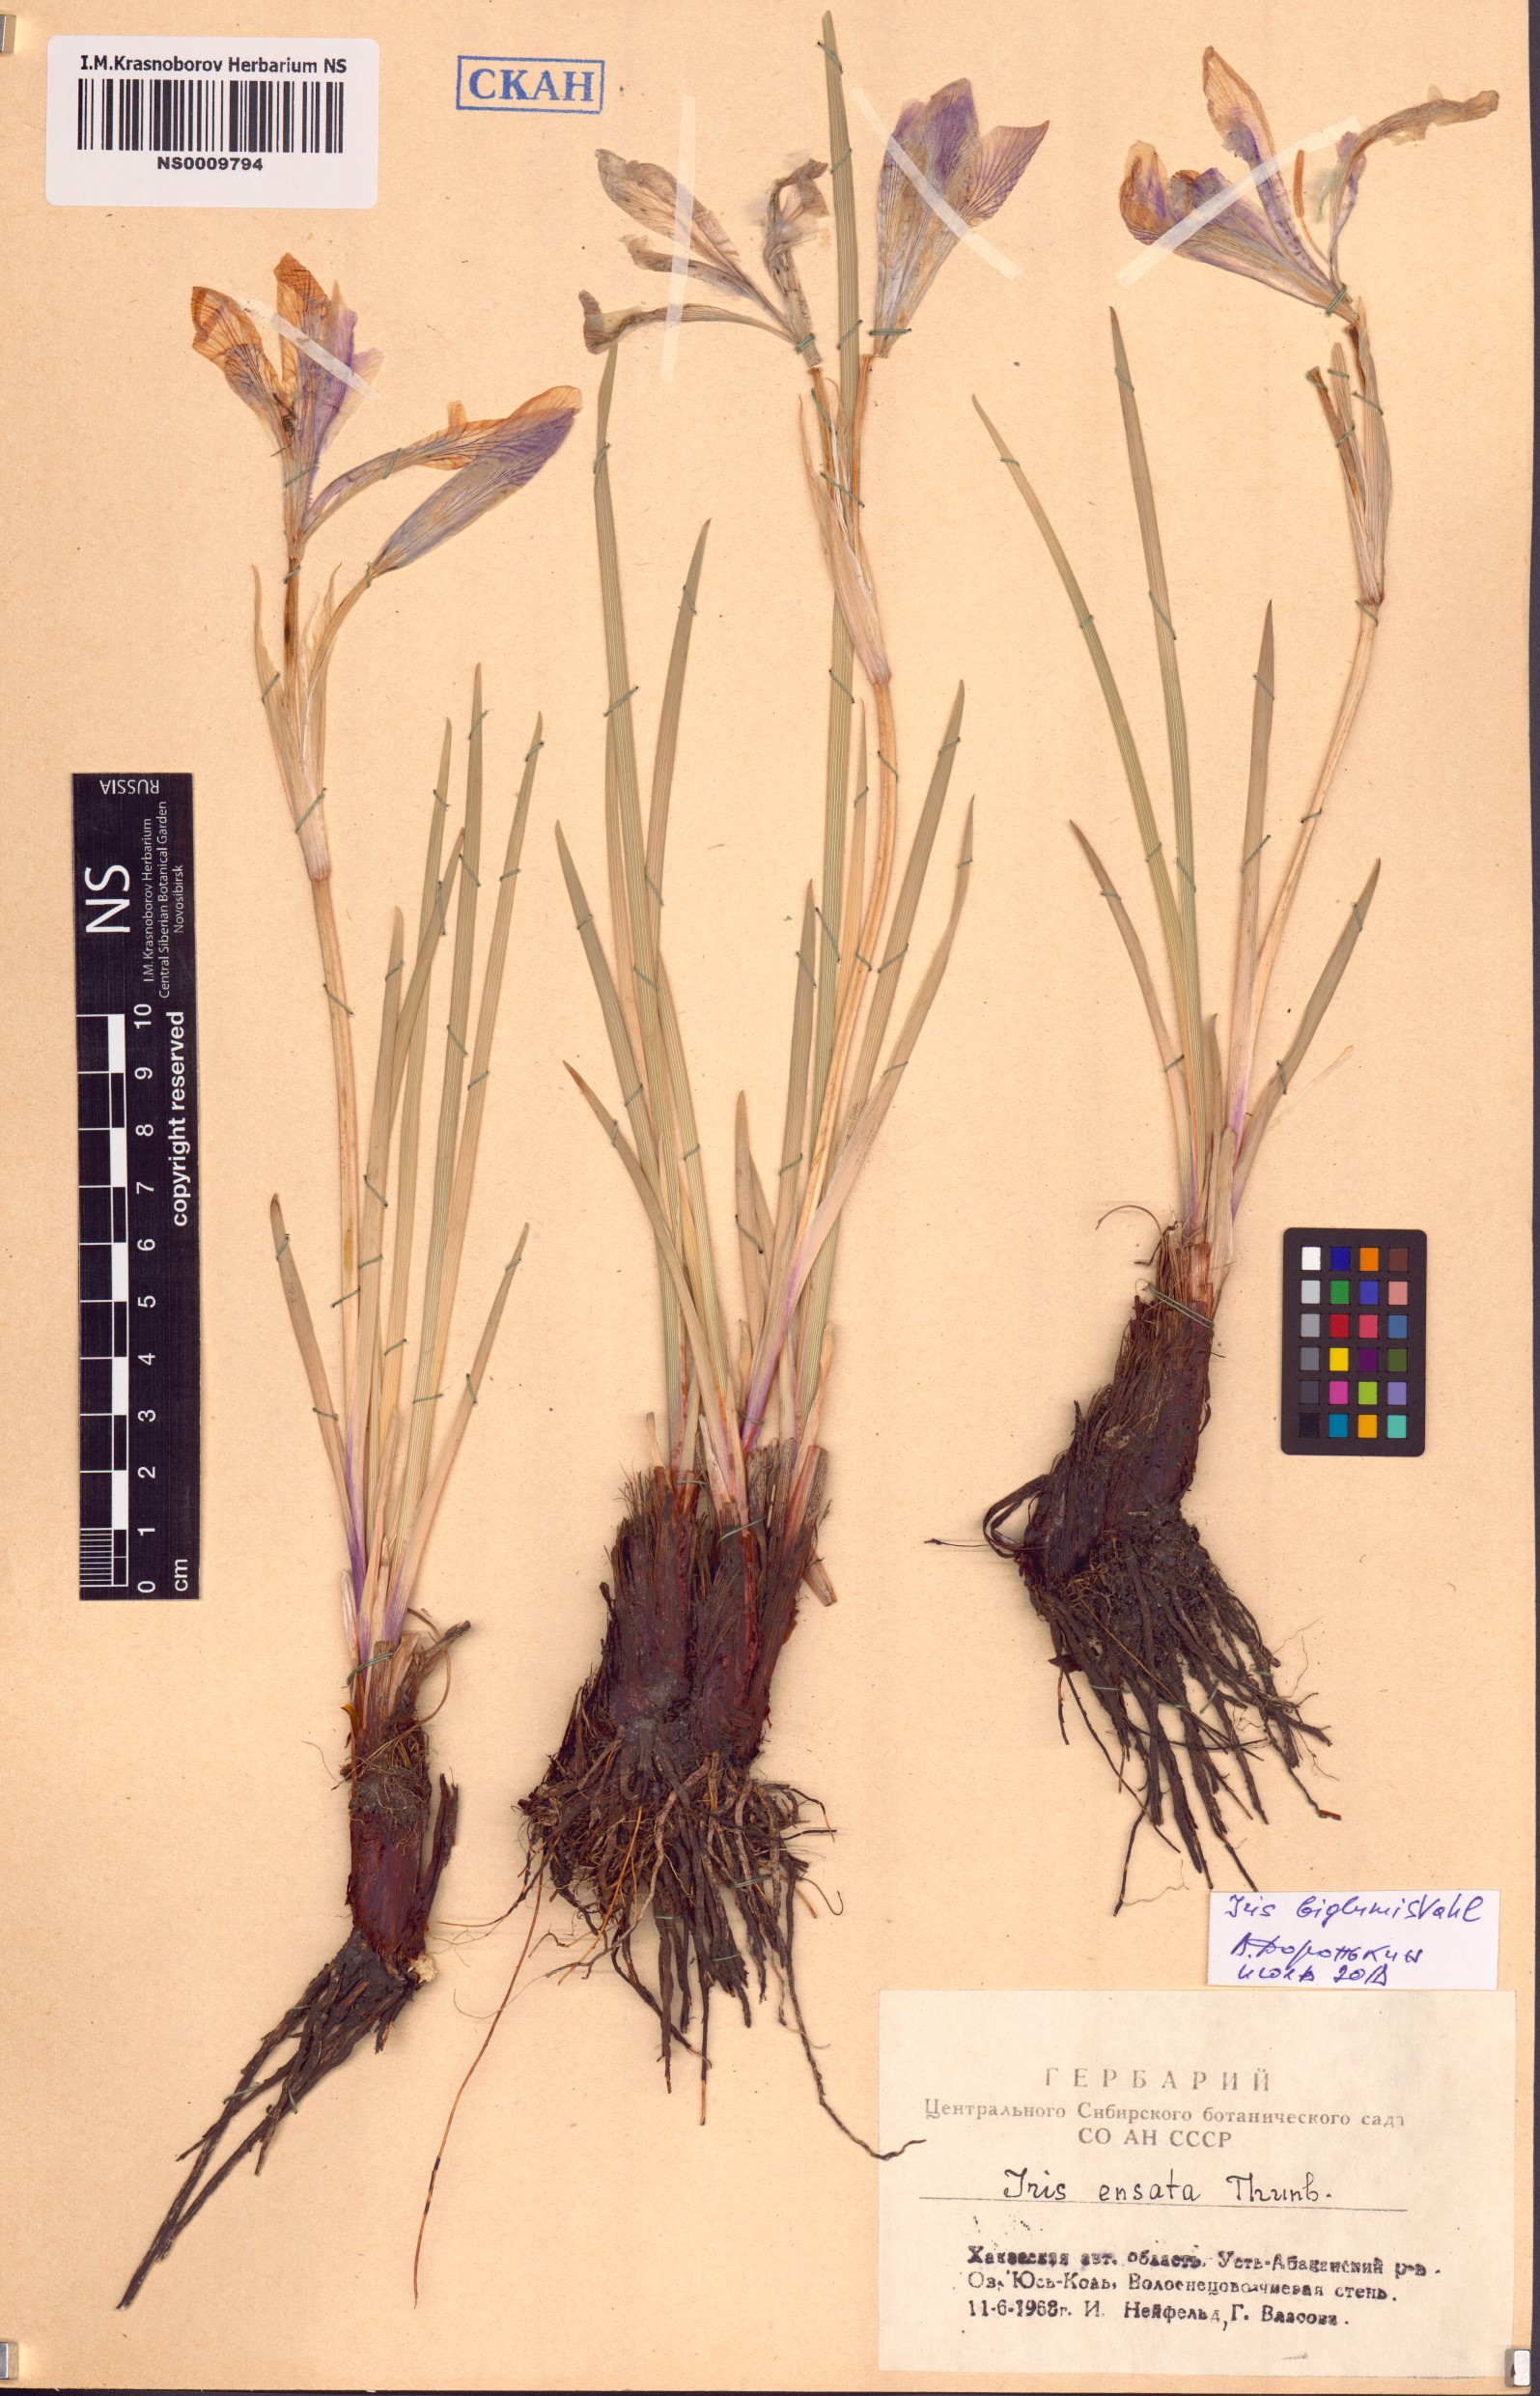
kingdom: Plantae
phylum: Tracheophyta
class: Liliopsida
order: Asparagales
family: Iridaceae
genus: Iris
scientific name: Iris lactea
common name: White-flower chinese iris
